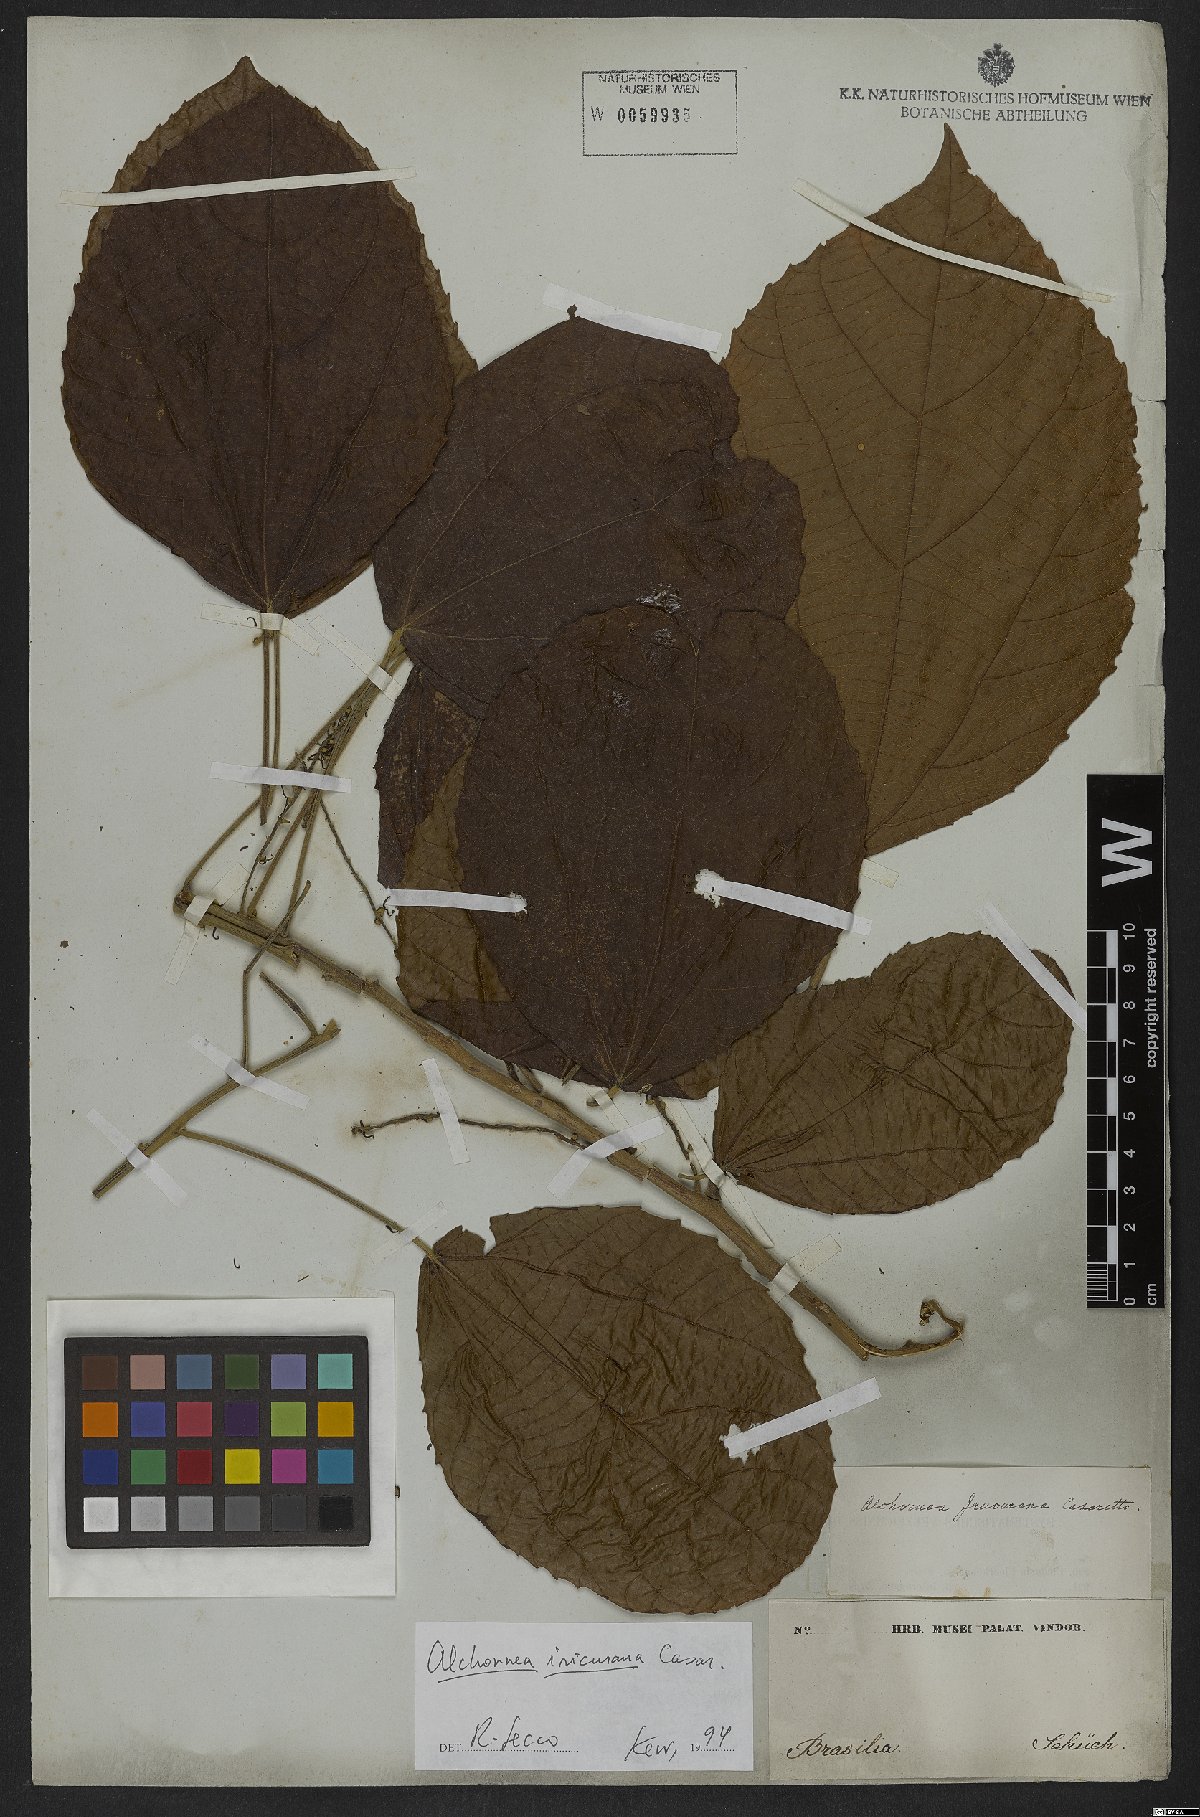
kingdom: Plantae
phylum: Tracheophyta
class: Magnoliopsida
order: Malpighiales
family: Euphorbiaceae
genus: Alchornea
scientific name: Alchornea glandulosa
